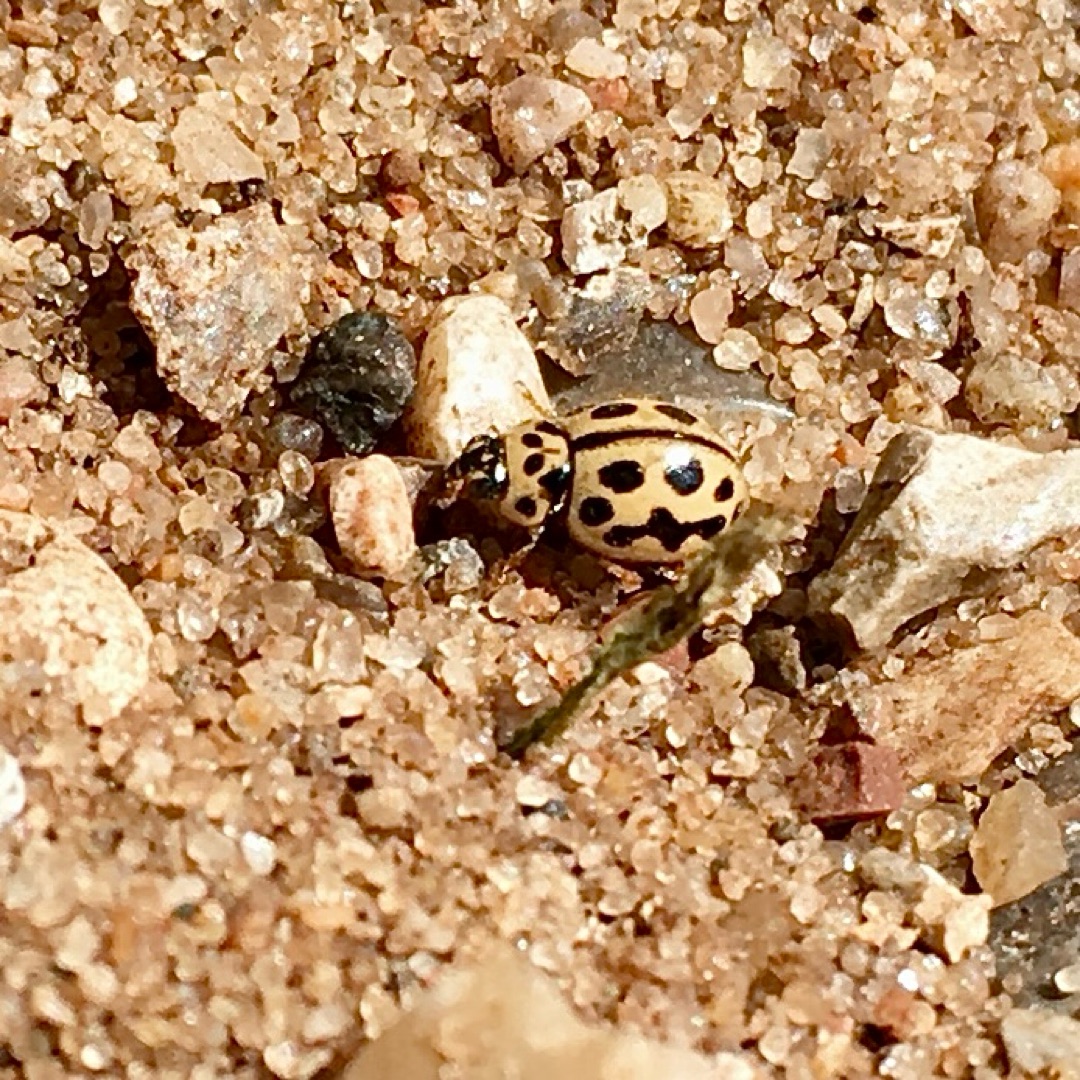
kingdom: Animalia
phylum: Arthropoda
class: Insecta
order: Coleoptera
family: Coccinellidae
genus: Tytthaspis
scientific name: Tytthaspis sedecimpunctata
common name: Sekstenprikket mariehøne
